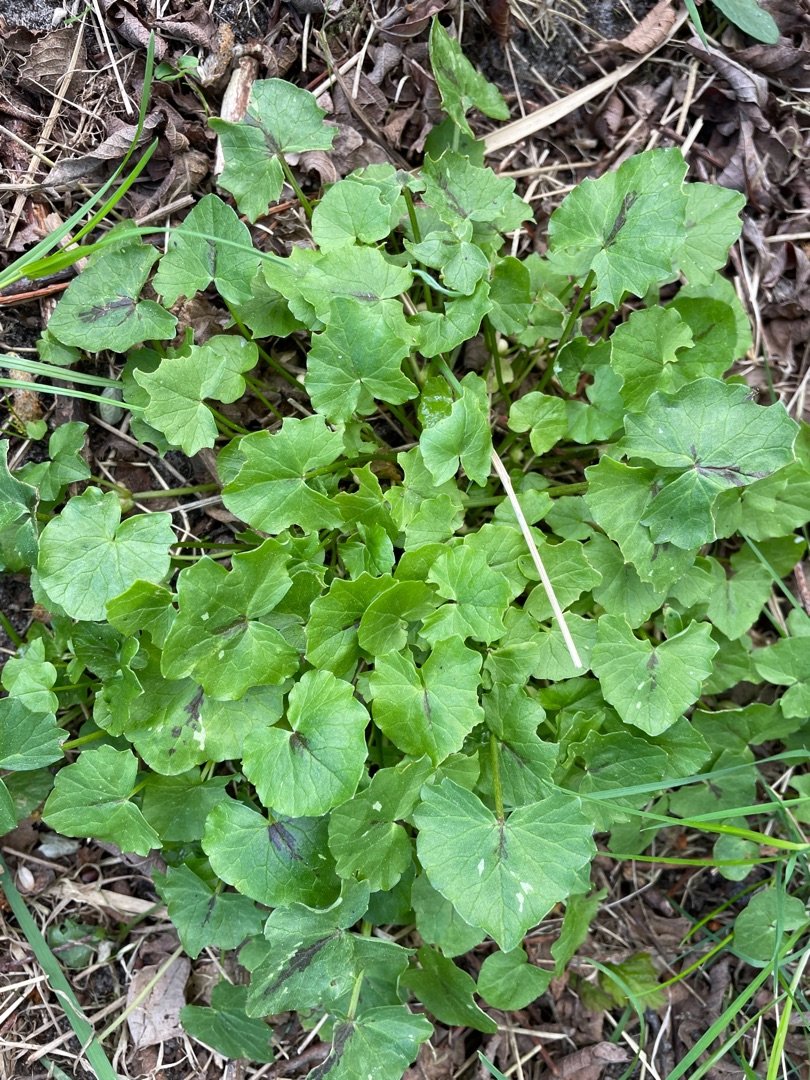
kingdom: Plantae
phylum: Tracheophyta
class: Magnoliopsida
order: Ranunculales
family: Ranunculaceae
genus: Ficaria
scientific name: Ficaria verna
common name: Vorterod
